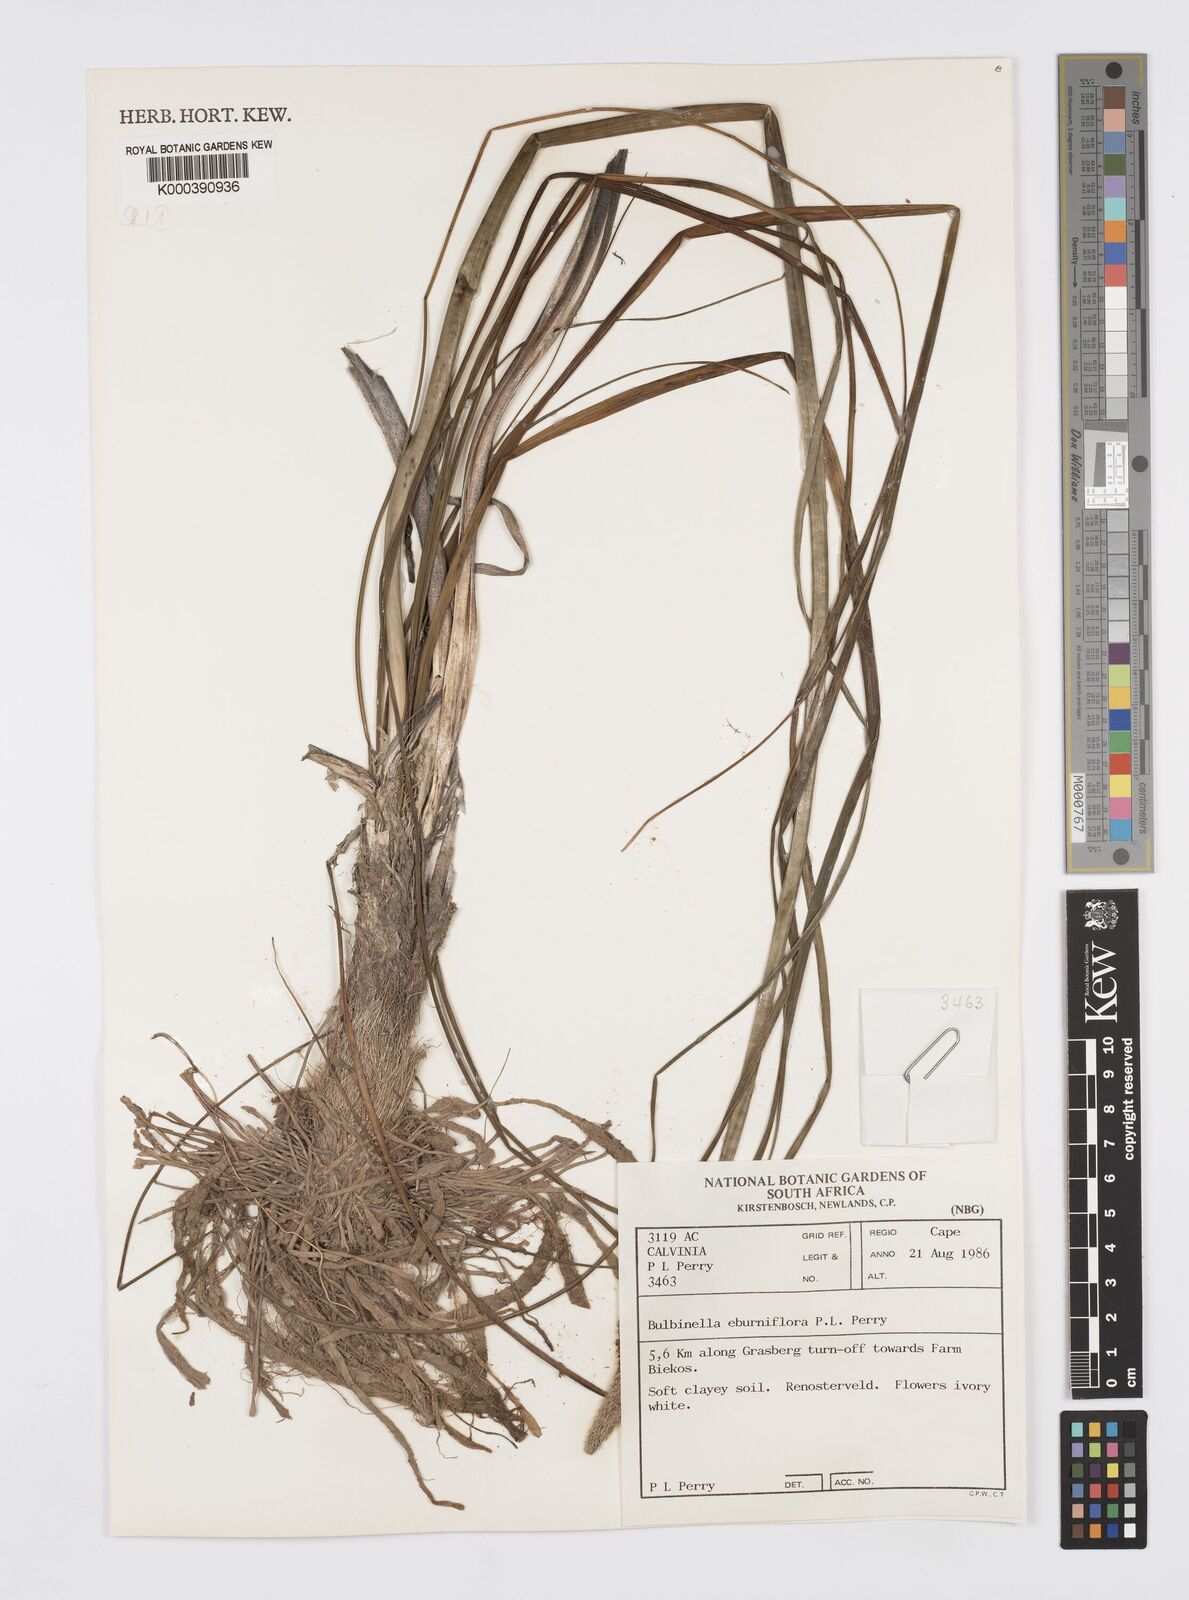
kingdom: Plantae
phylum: Tracheophyta
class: Liliopsida
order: Asparagales
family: Asphodelaceae
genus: Bulbinella
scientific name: Bulbinella eburniflora
